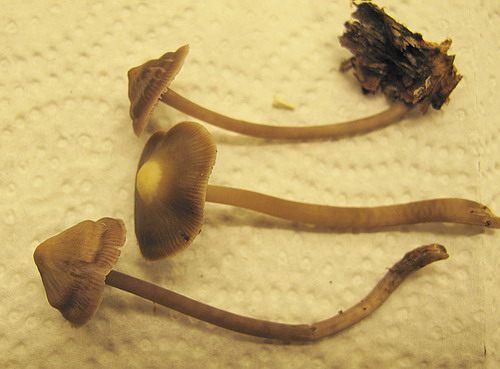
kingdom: Fungi
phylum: Basidiomycota
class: Agaricomycetes
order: Agaricales
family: Mycenaceae
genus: Prunulus
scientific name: Prunulus diosmus
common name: tobaks-huesvamp
